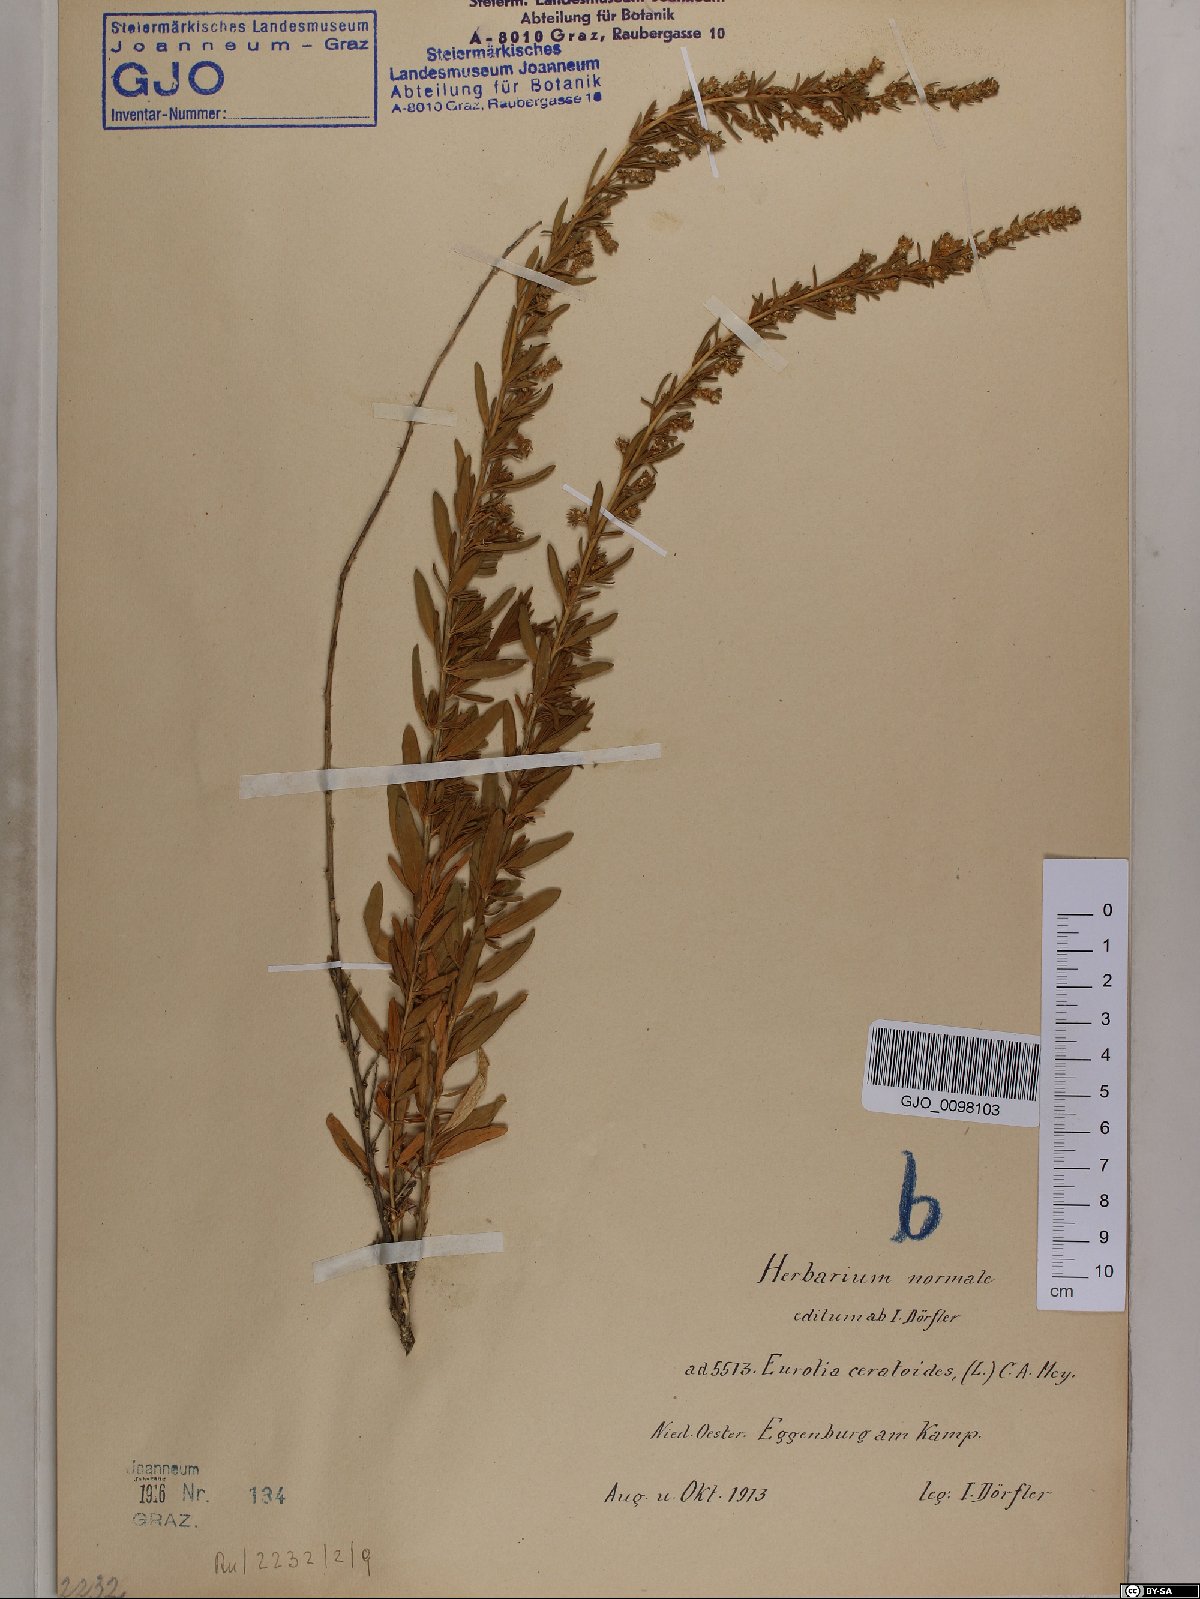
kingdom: Plantae
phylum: Tracheophyta
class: Magnoliopsida
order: Caryophyllales
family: Amaranthaceae
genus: Krascheninnikovia
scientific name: Krascheninnikovia ceratoides
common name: Pamirian winterfat
